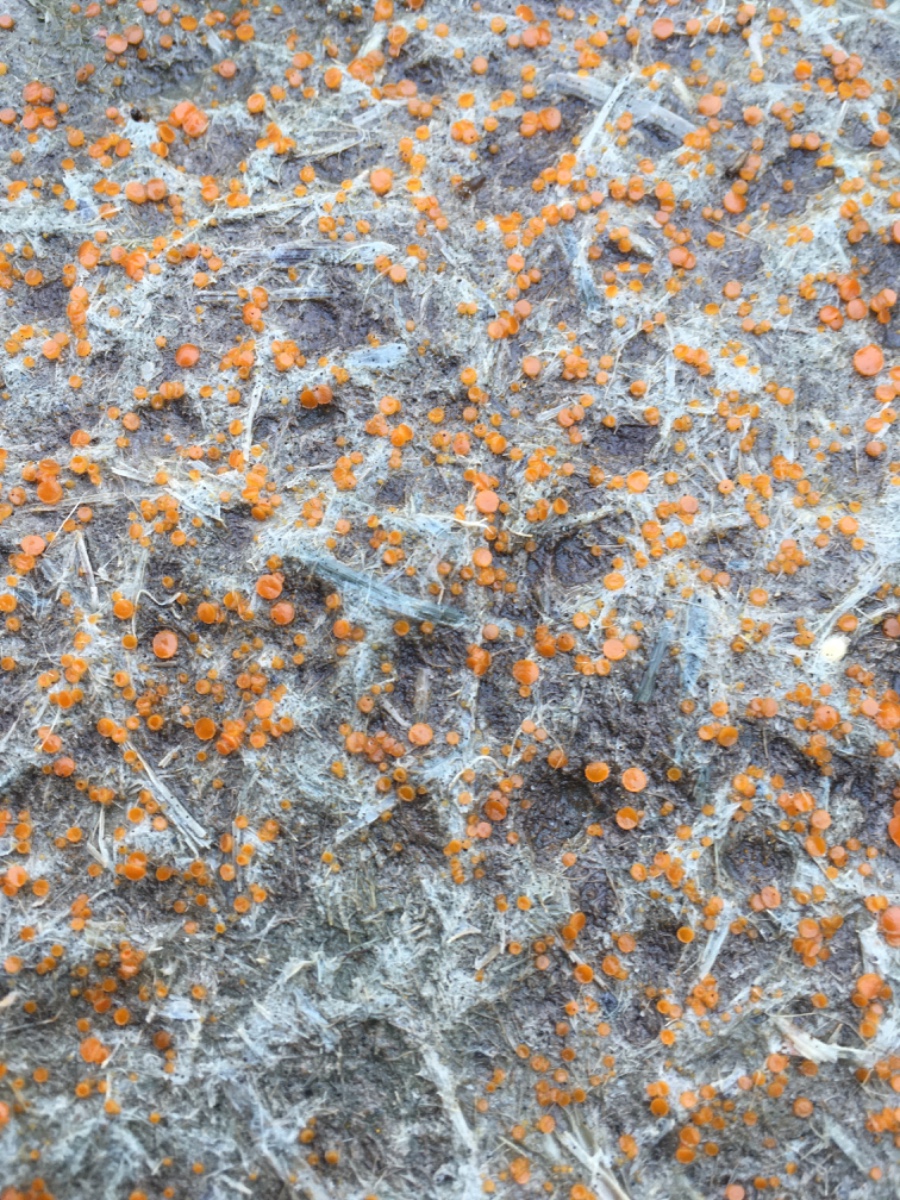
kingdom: Fungi
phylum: Ascomycota
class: Pezizomycetes
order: Pezizales
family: Pyronemataceae
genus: Cheilymenia
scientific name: Cheilymenia
